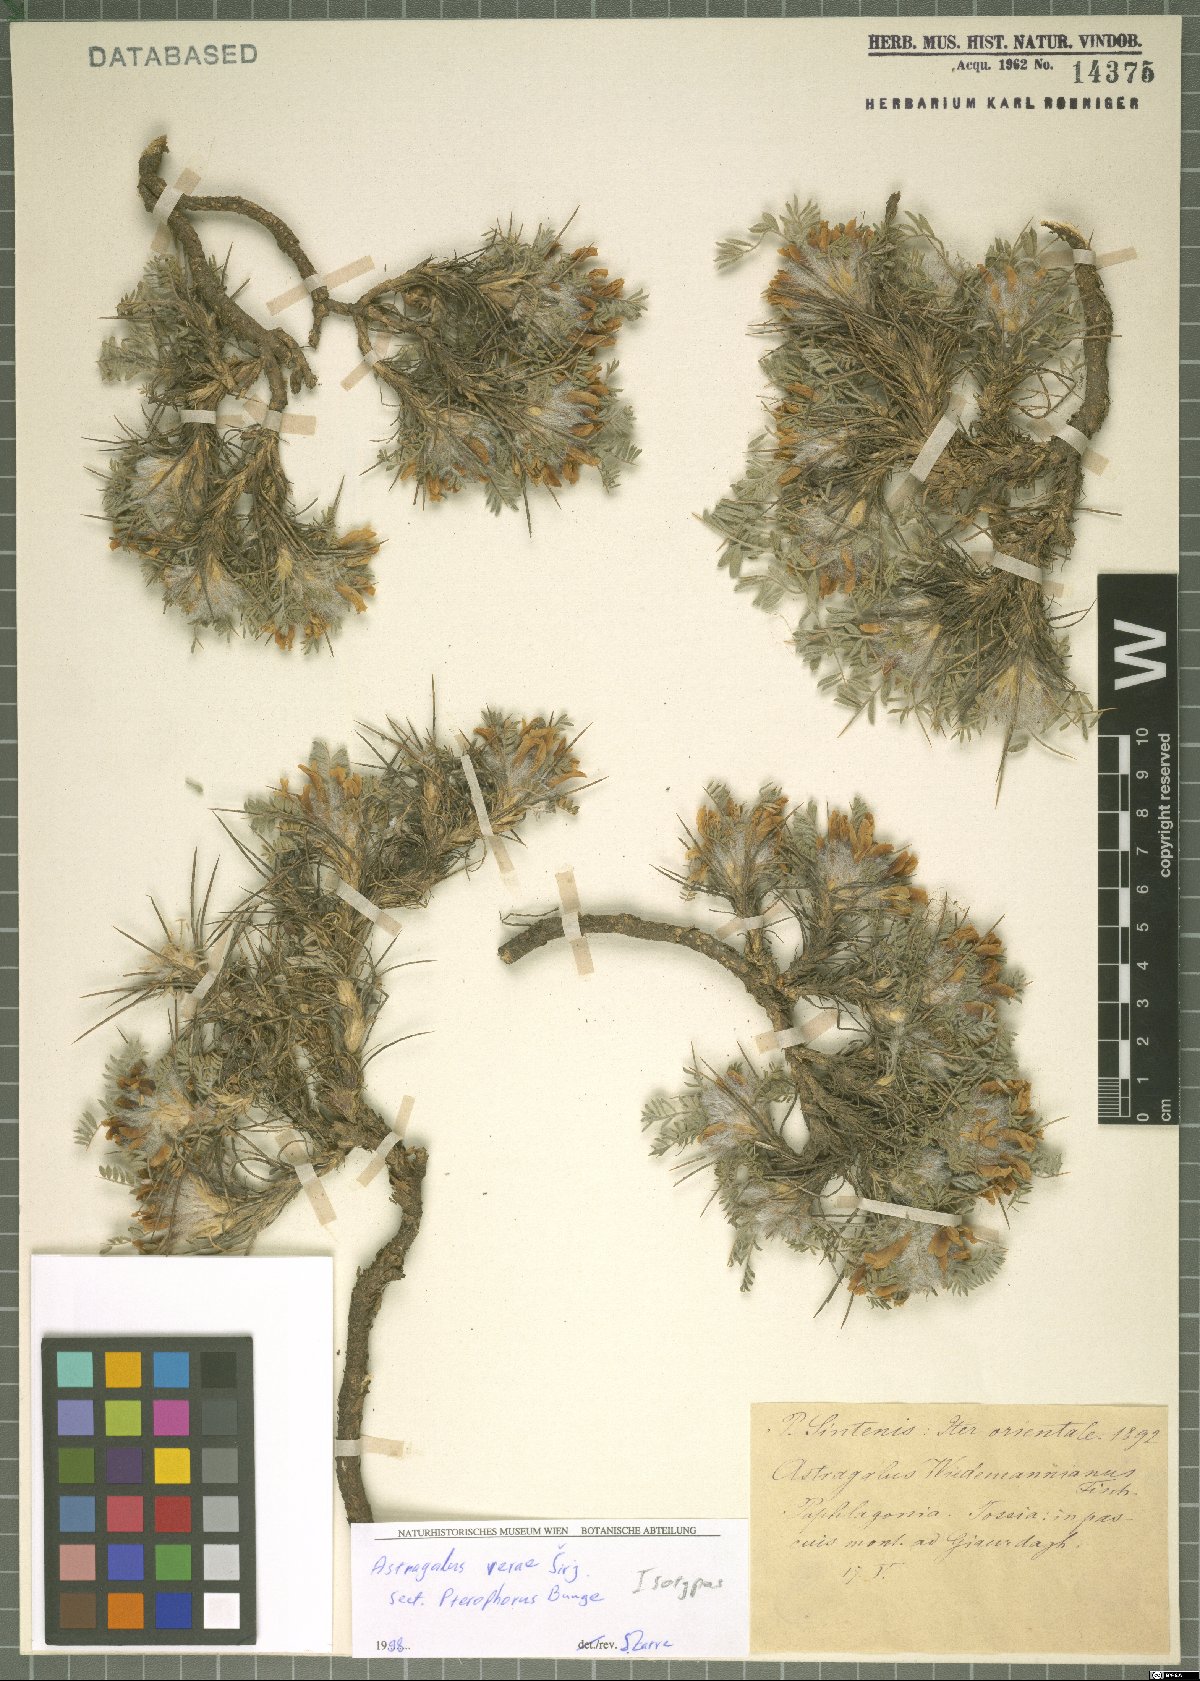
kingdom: Plantae
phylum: Tracheophyta
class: Magnoliopsida
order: Fabales
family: Fabaceae
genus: Astragalus
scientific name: Astragalus verae
